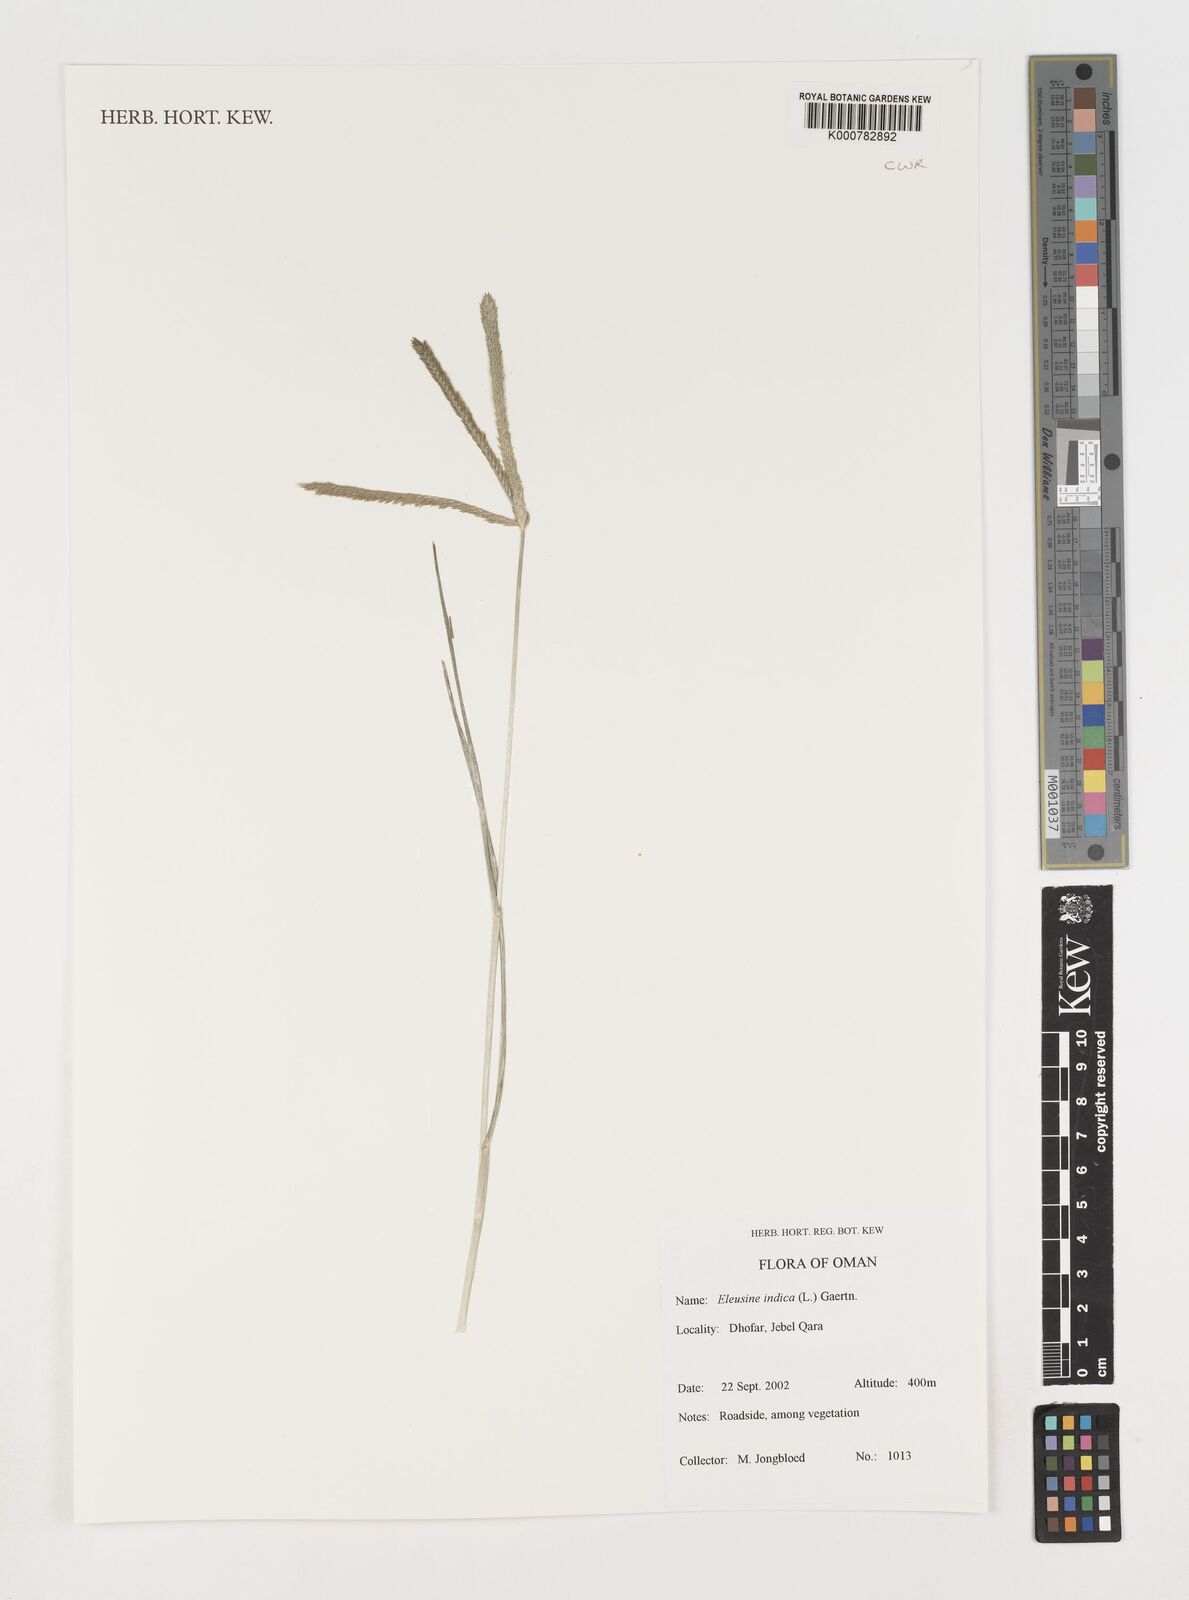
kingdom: Plantae
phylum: Tracheophyta
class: Liliopsida
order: Poales
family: Poaceae
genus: Eleusine
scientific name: Eleusine indica
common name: Yard-grass
